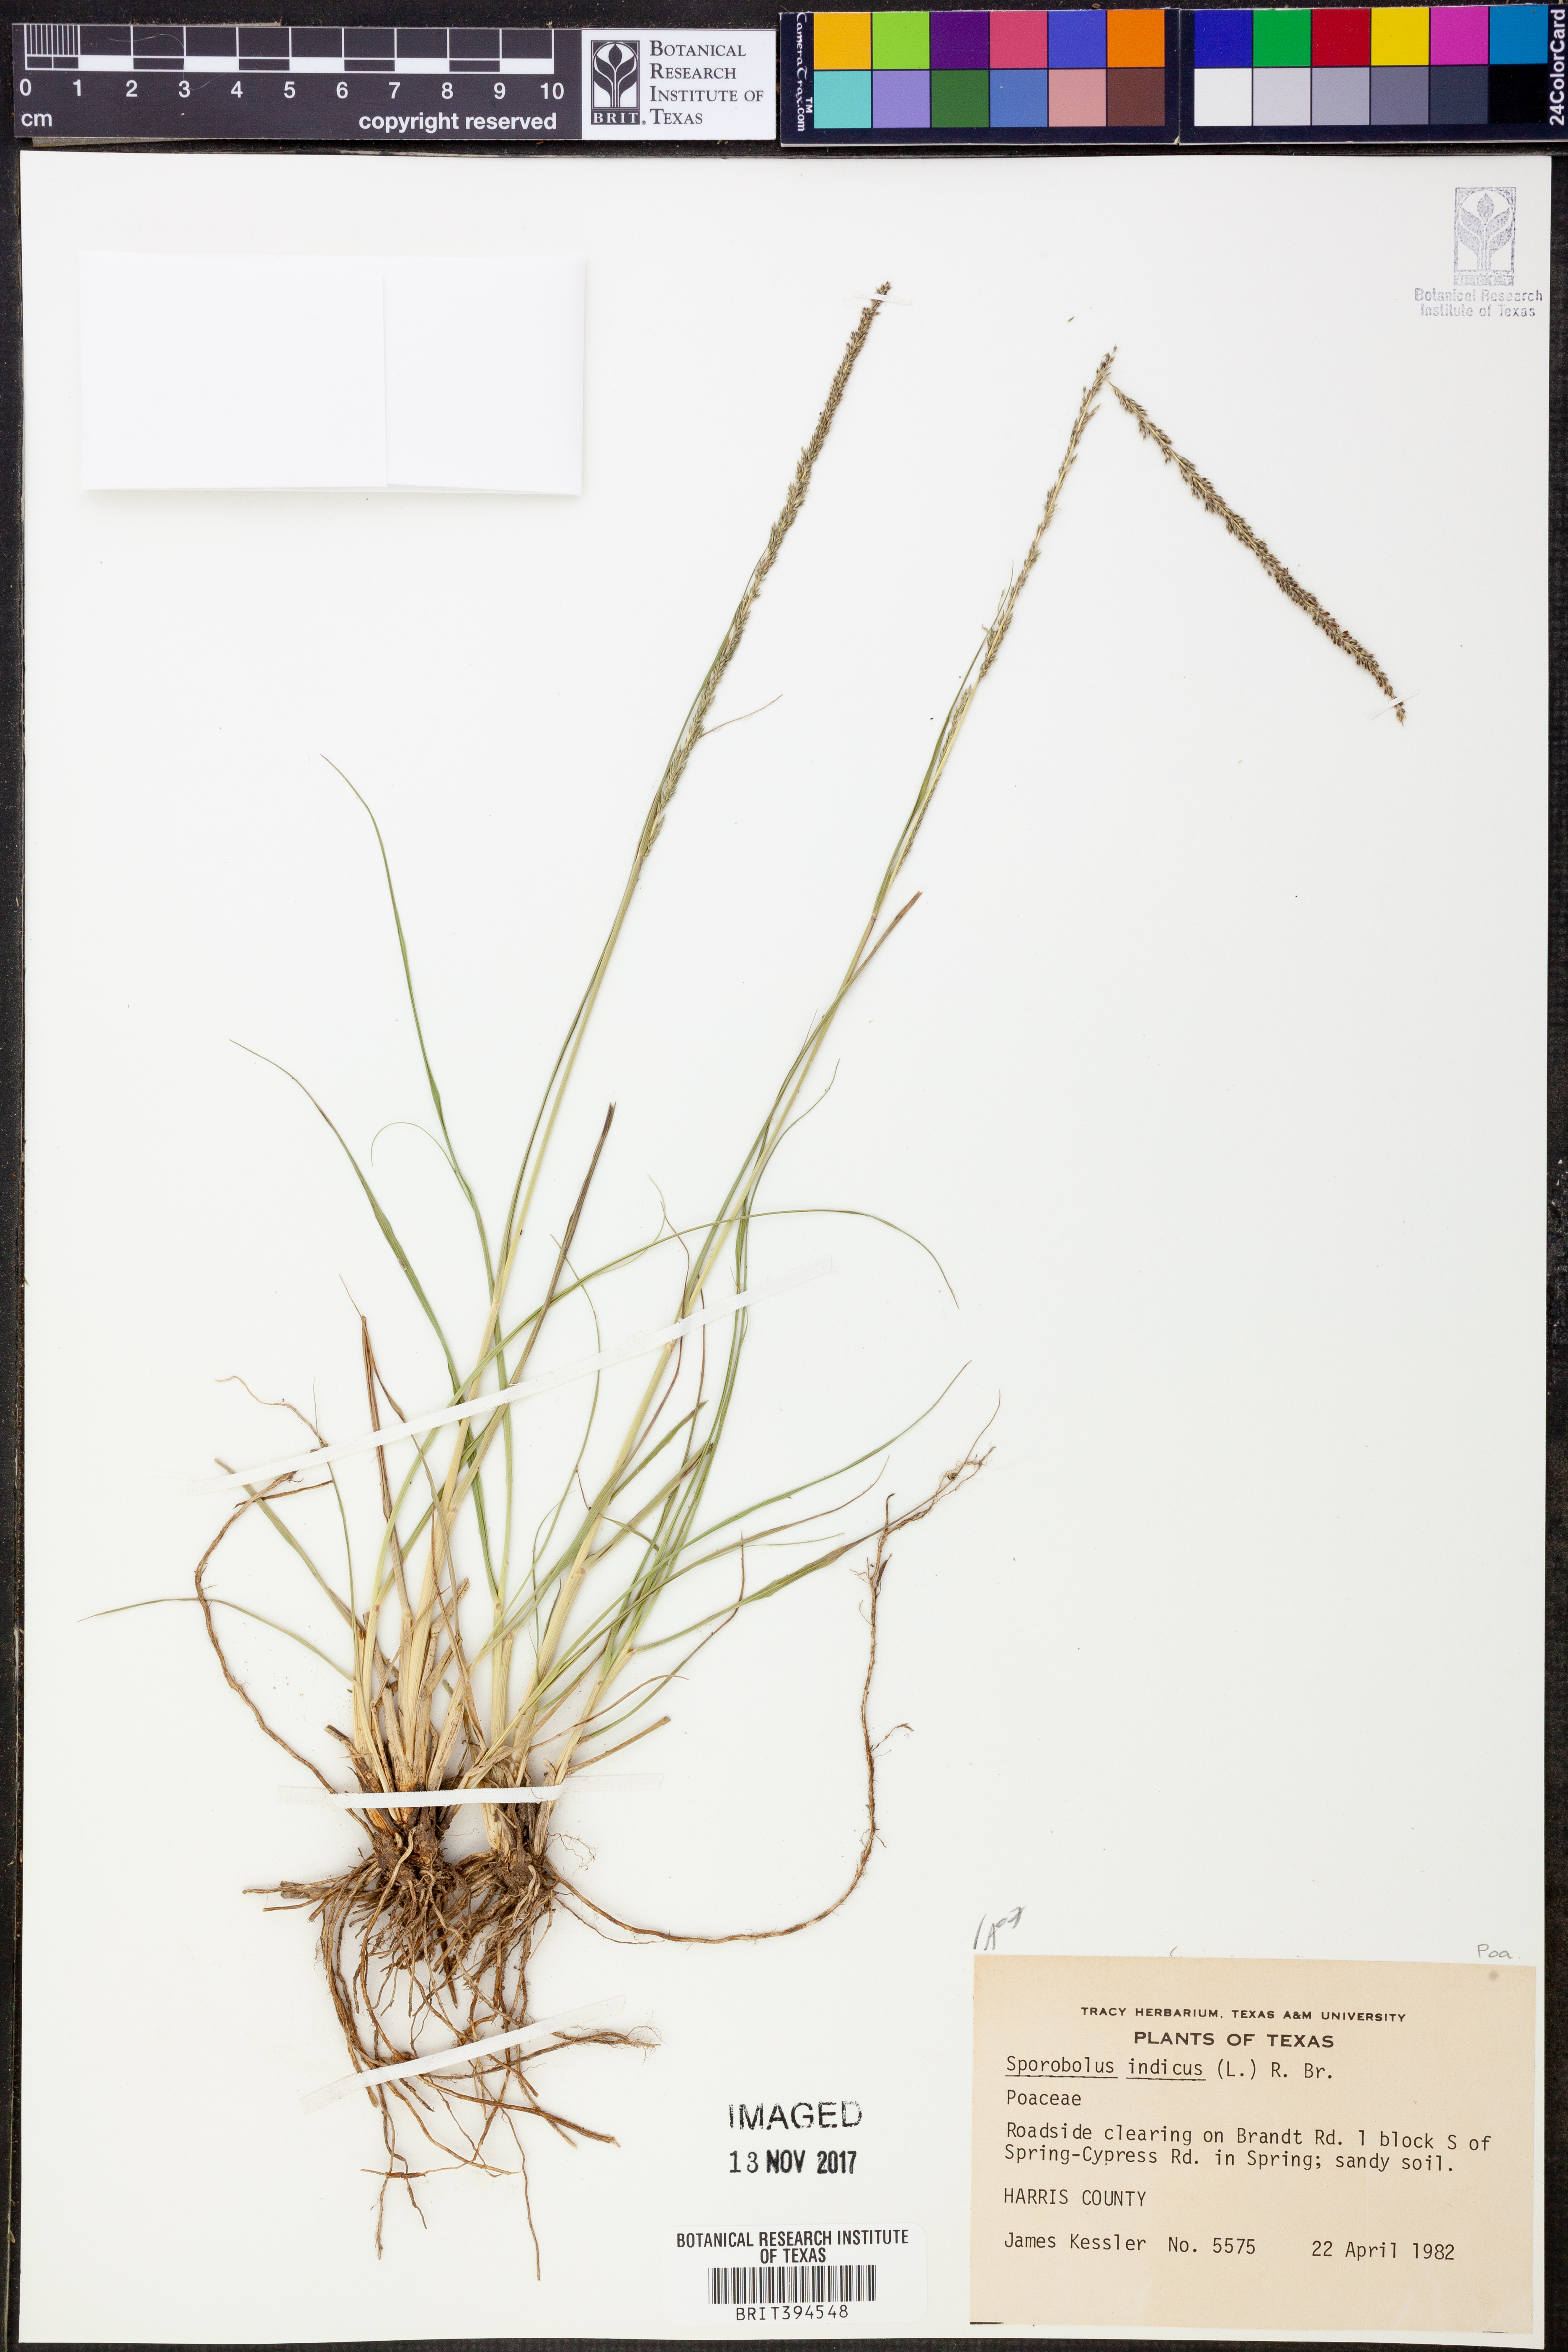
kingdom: Plantae
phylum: Tracheophyta
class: Liliopsida
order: Poales
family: Poaceae
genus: Sporobolus
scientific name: Sporobolus indicus
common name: Smut grass
